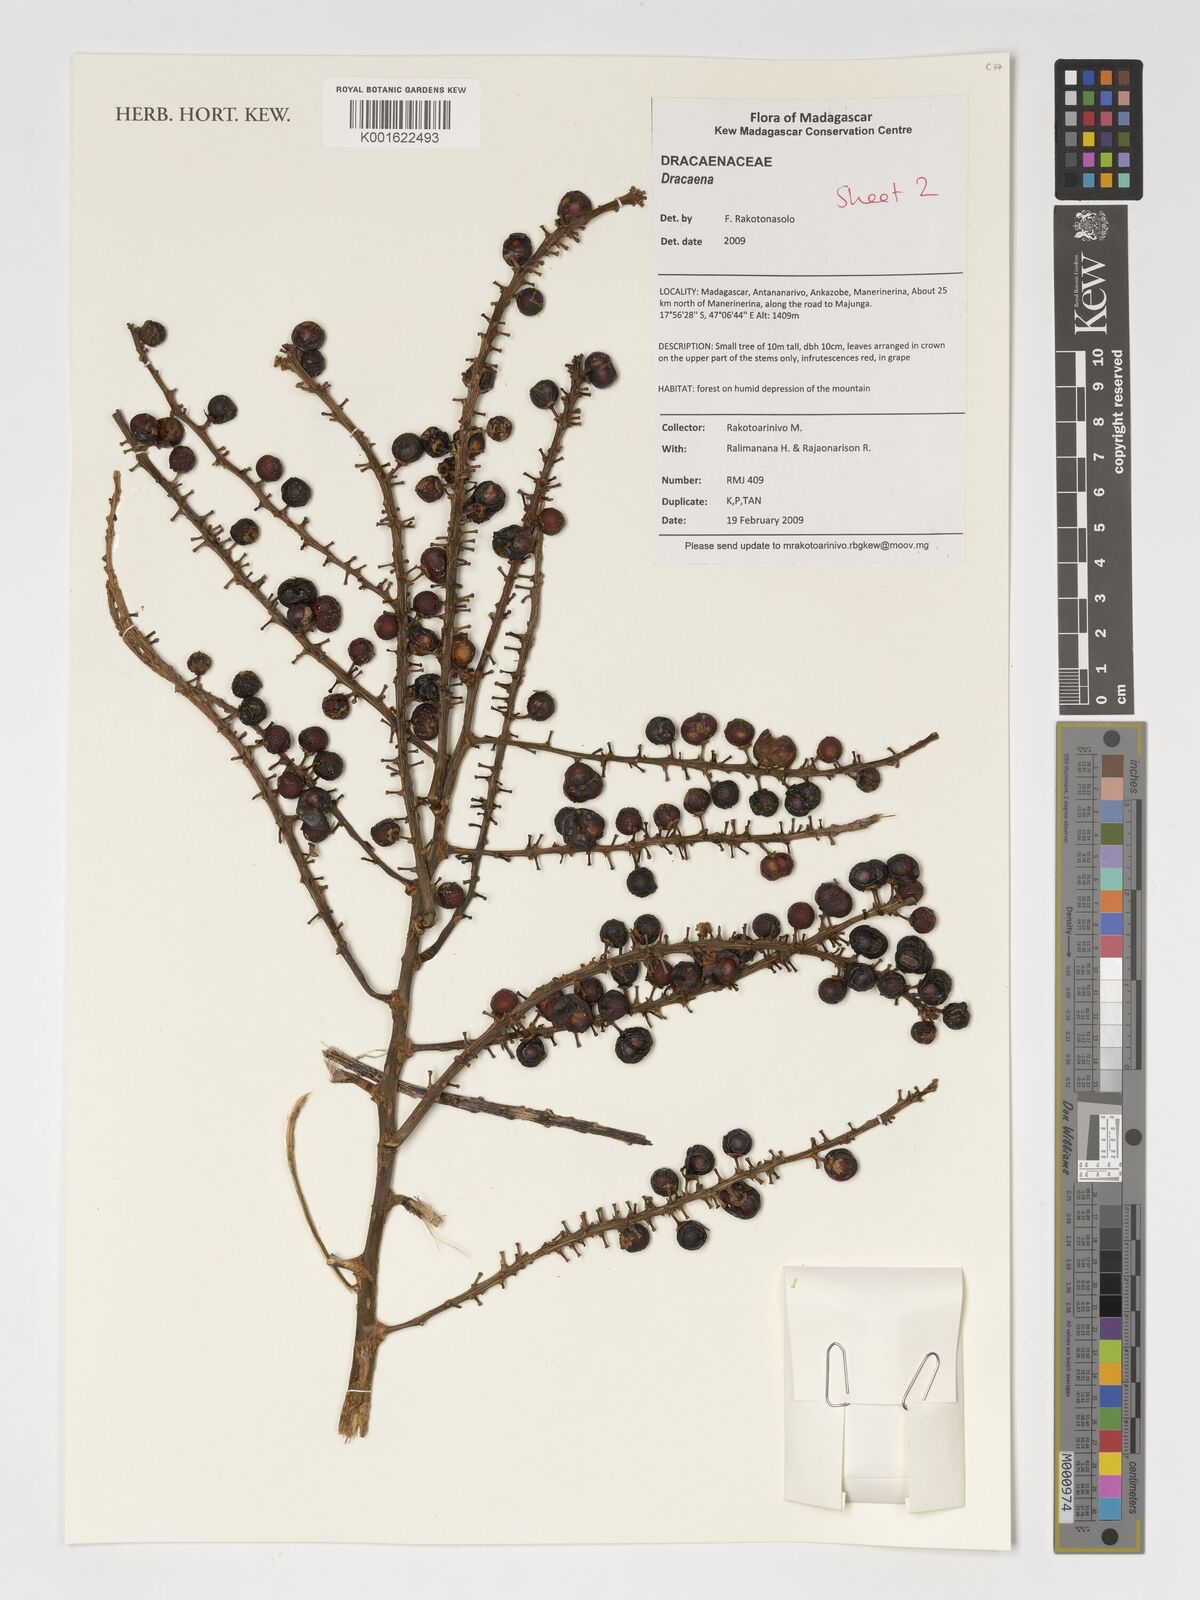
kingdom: Plantae
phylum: Tracheophyta
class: Liliopsida
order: Asparagales
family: Asparagaceae
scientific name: Asparagaceae
